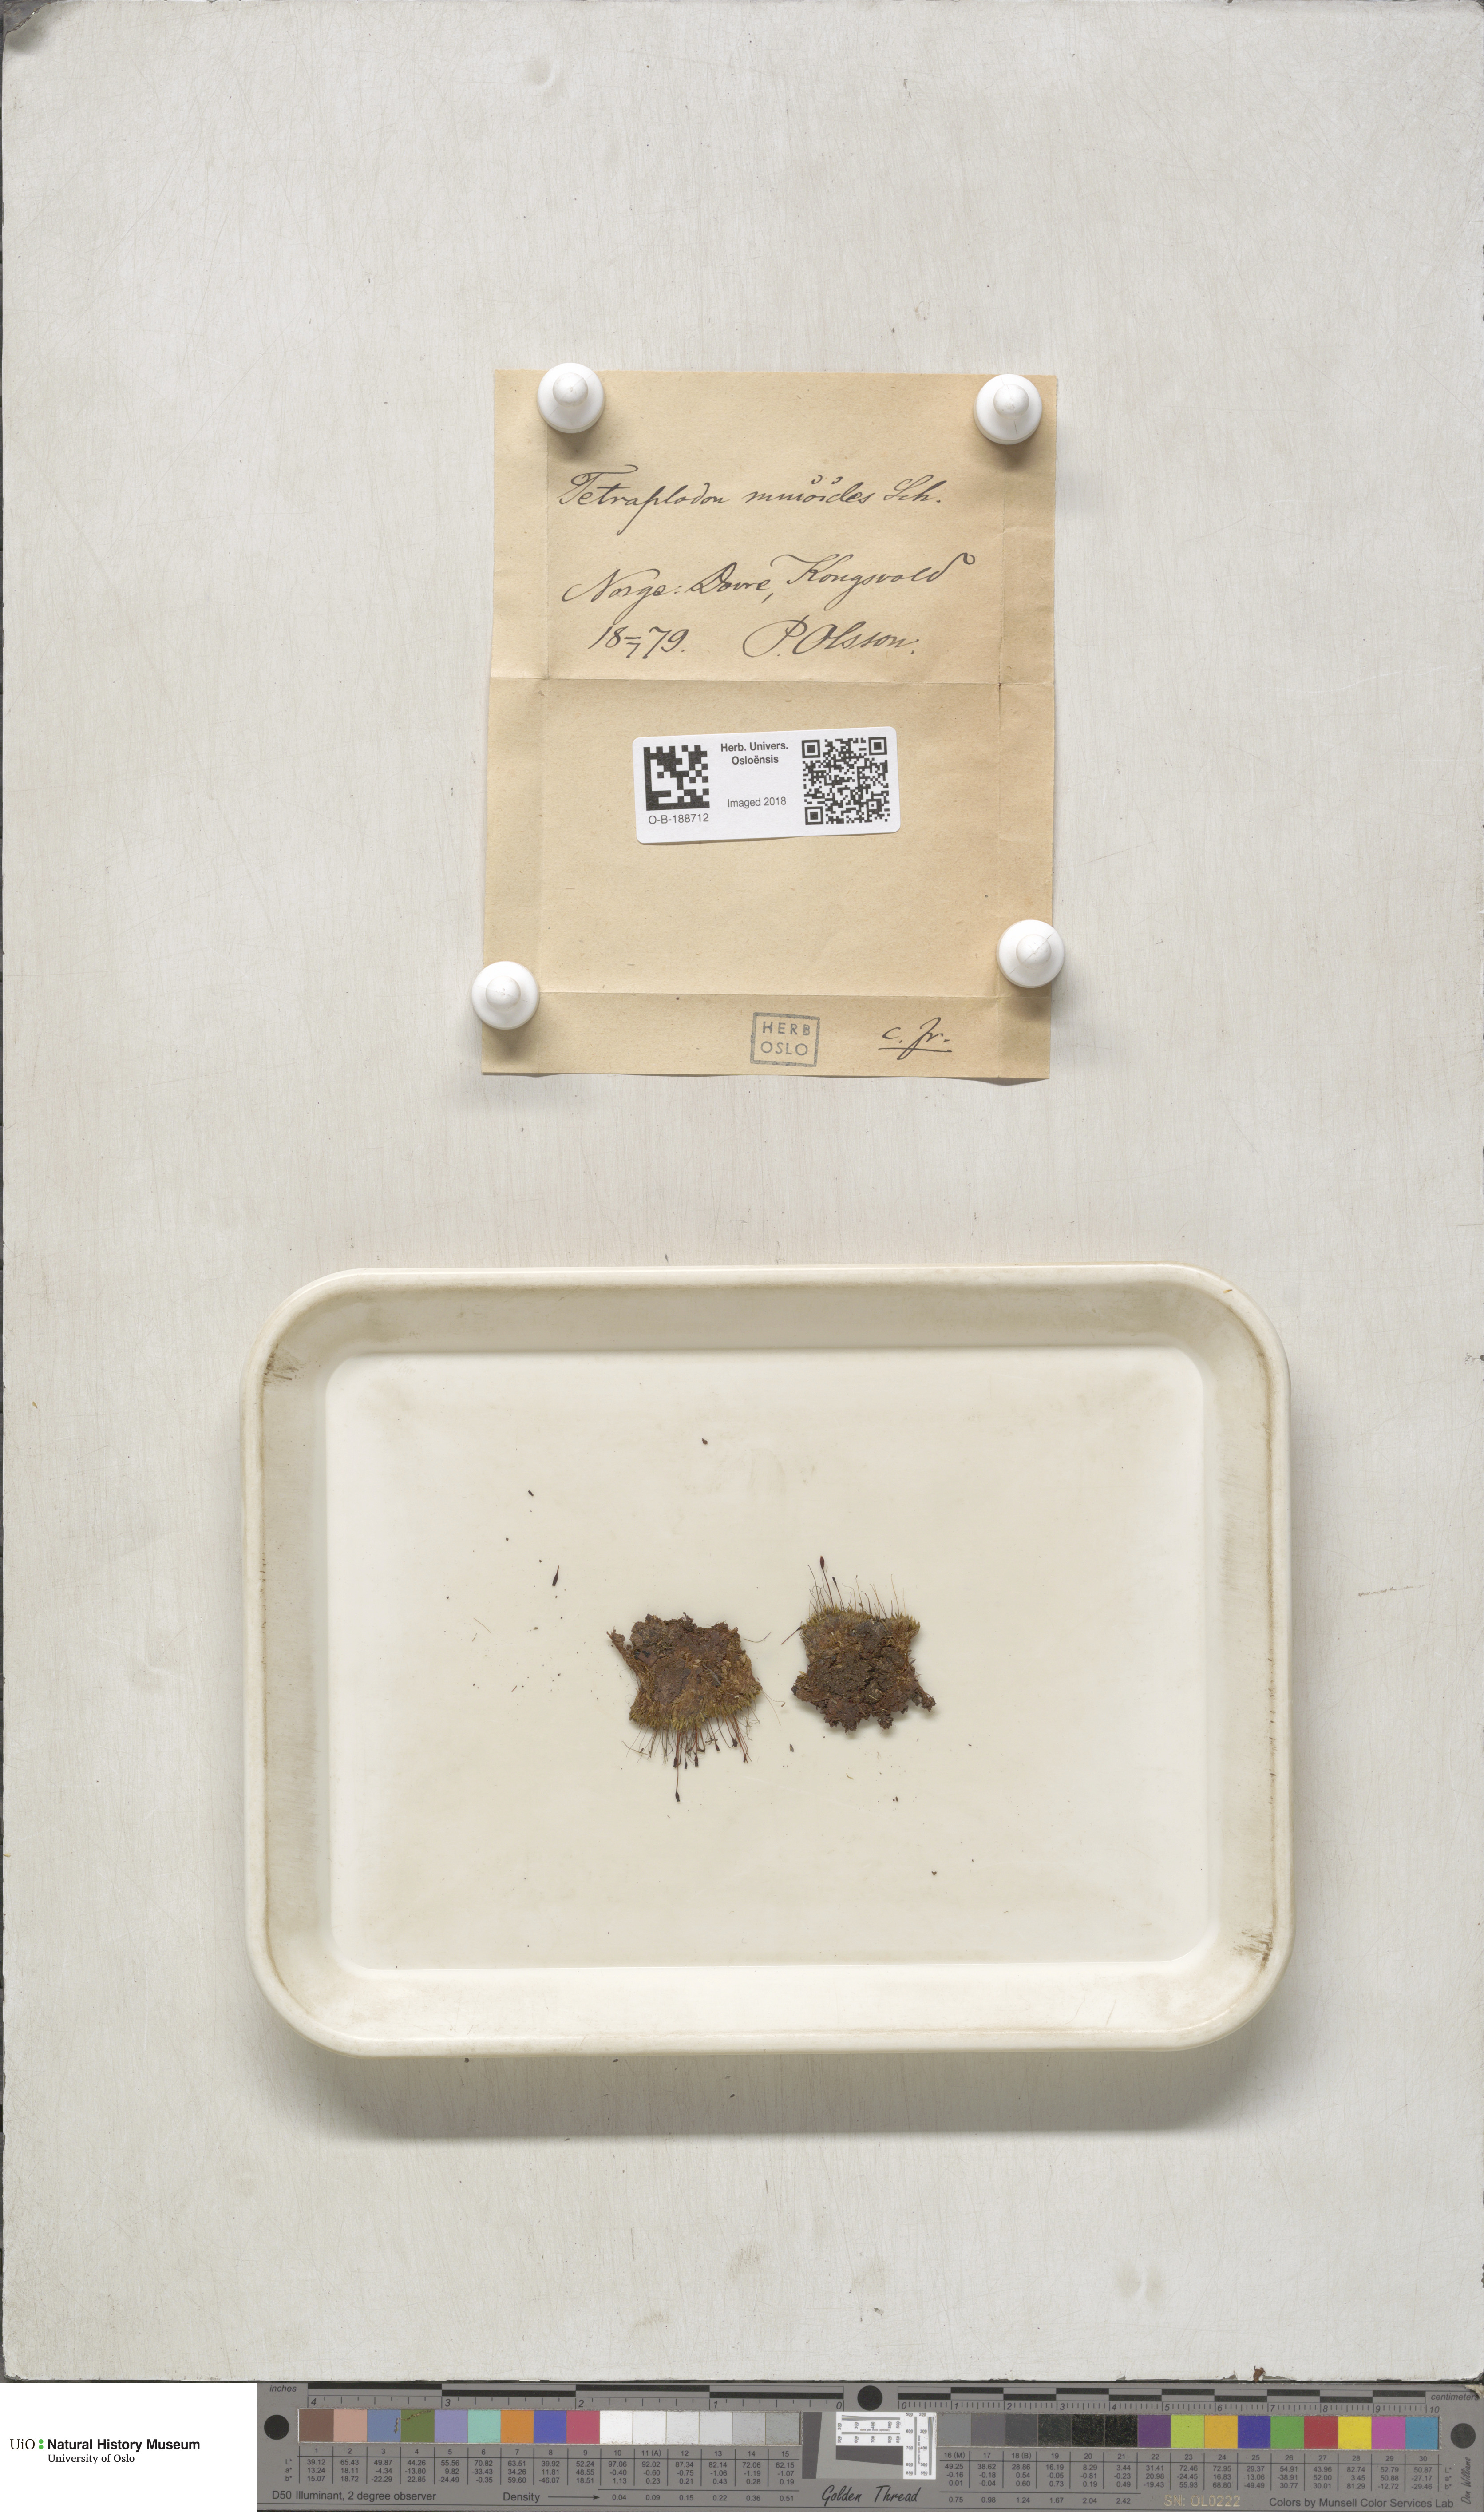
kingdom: Plantae
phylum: Bryophyta
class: Bryopsida
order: Splachnales
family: Splachnaceae
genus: Tetraplodon
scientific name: Tetraplodon mnioides
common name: Entire-leaved nitrogen moss
